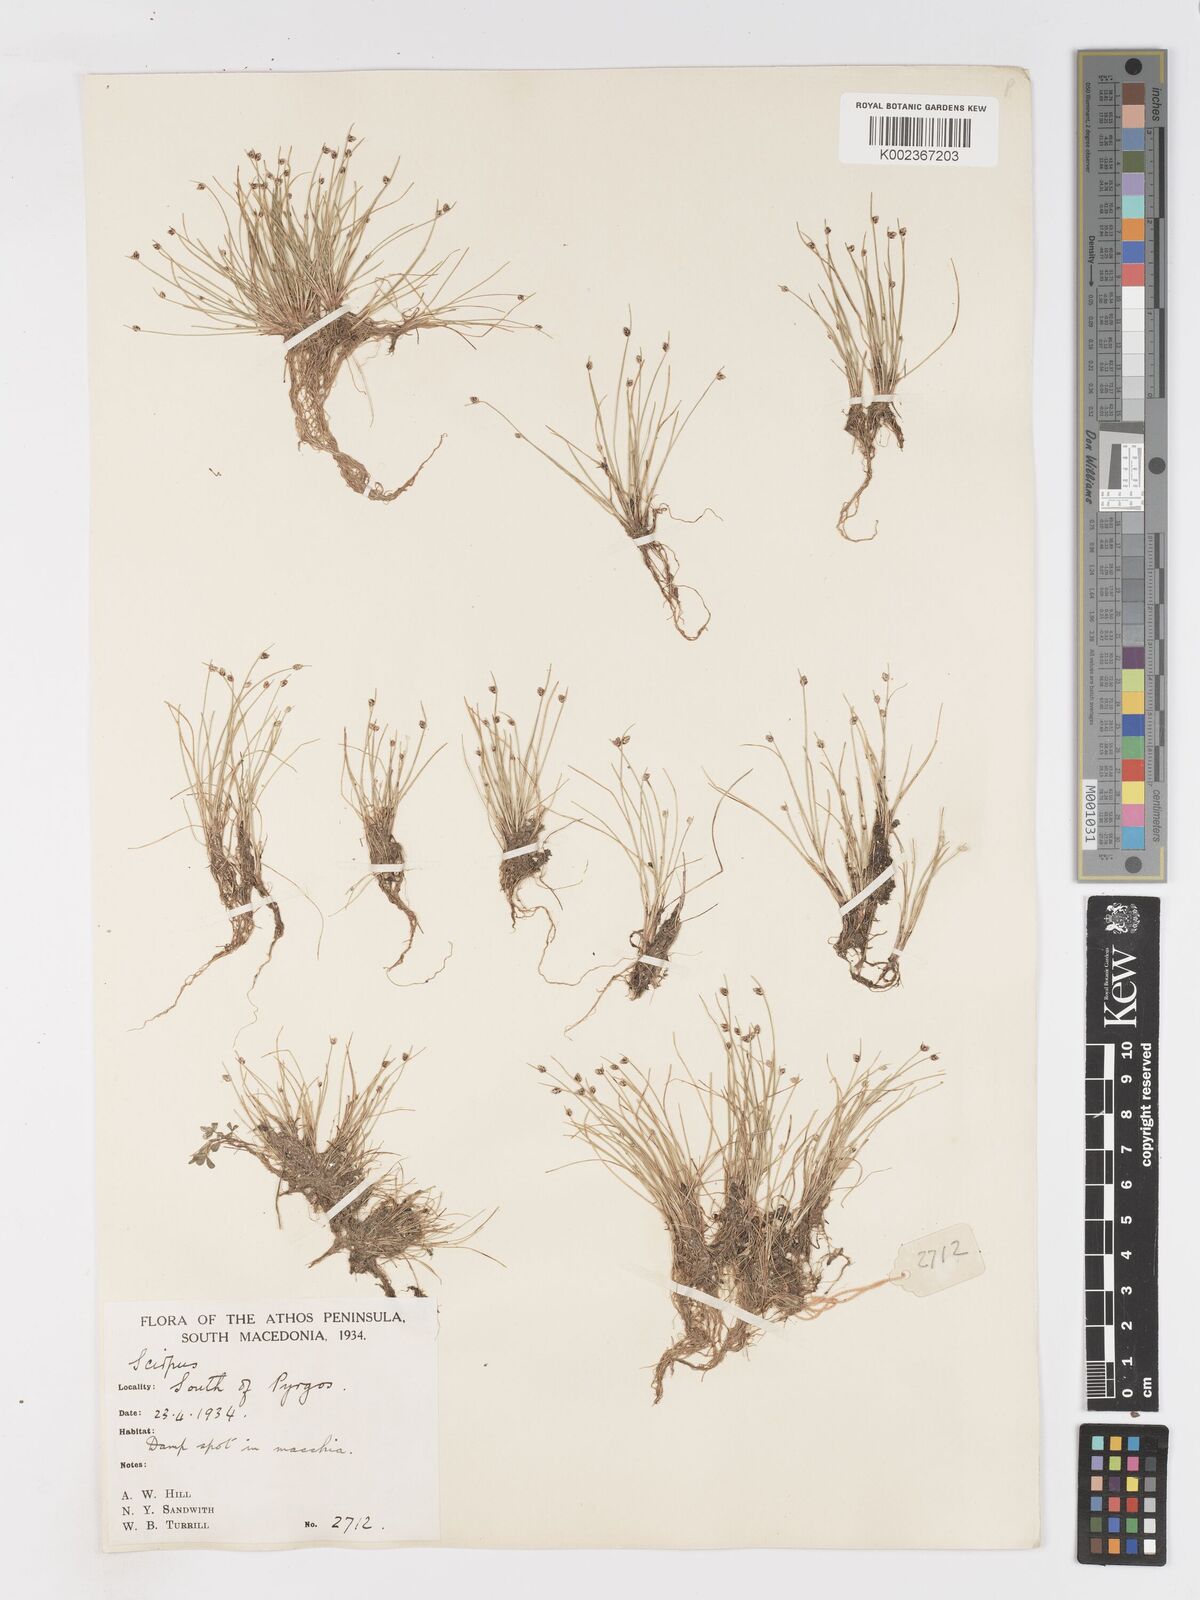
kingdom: Plantae
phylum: Tracheophyta
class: Liliopsida
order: Poales
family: Cyperaceae
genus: Isolepis
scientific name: Isolepis setacea
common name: Bristle club-rush
